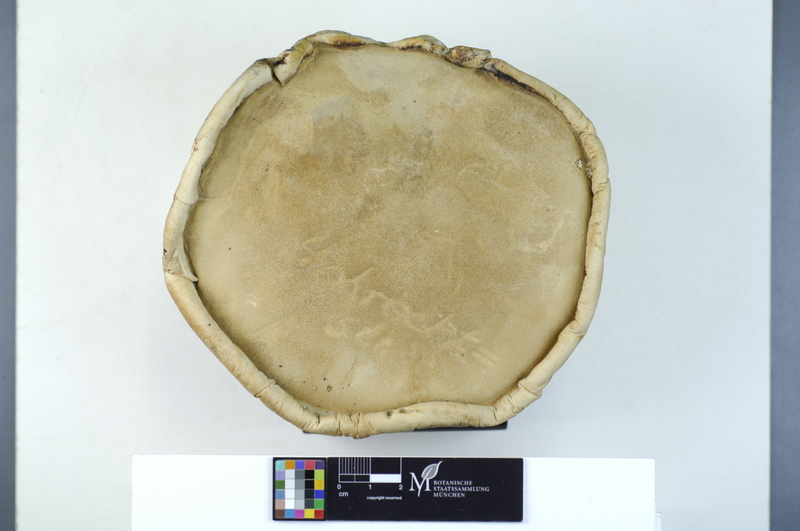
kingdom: Fungi
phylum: Basidiomycota
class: Agaricomycetes
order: Polyporales
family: Fomitopsidaceae
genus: Fomitopsis
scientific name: Fomitopsis betulina
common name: Birch polypore
